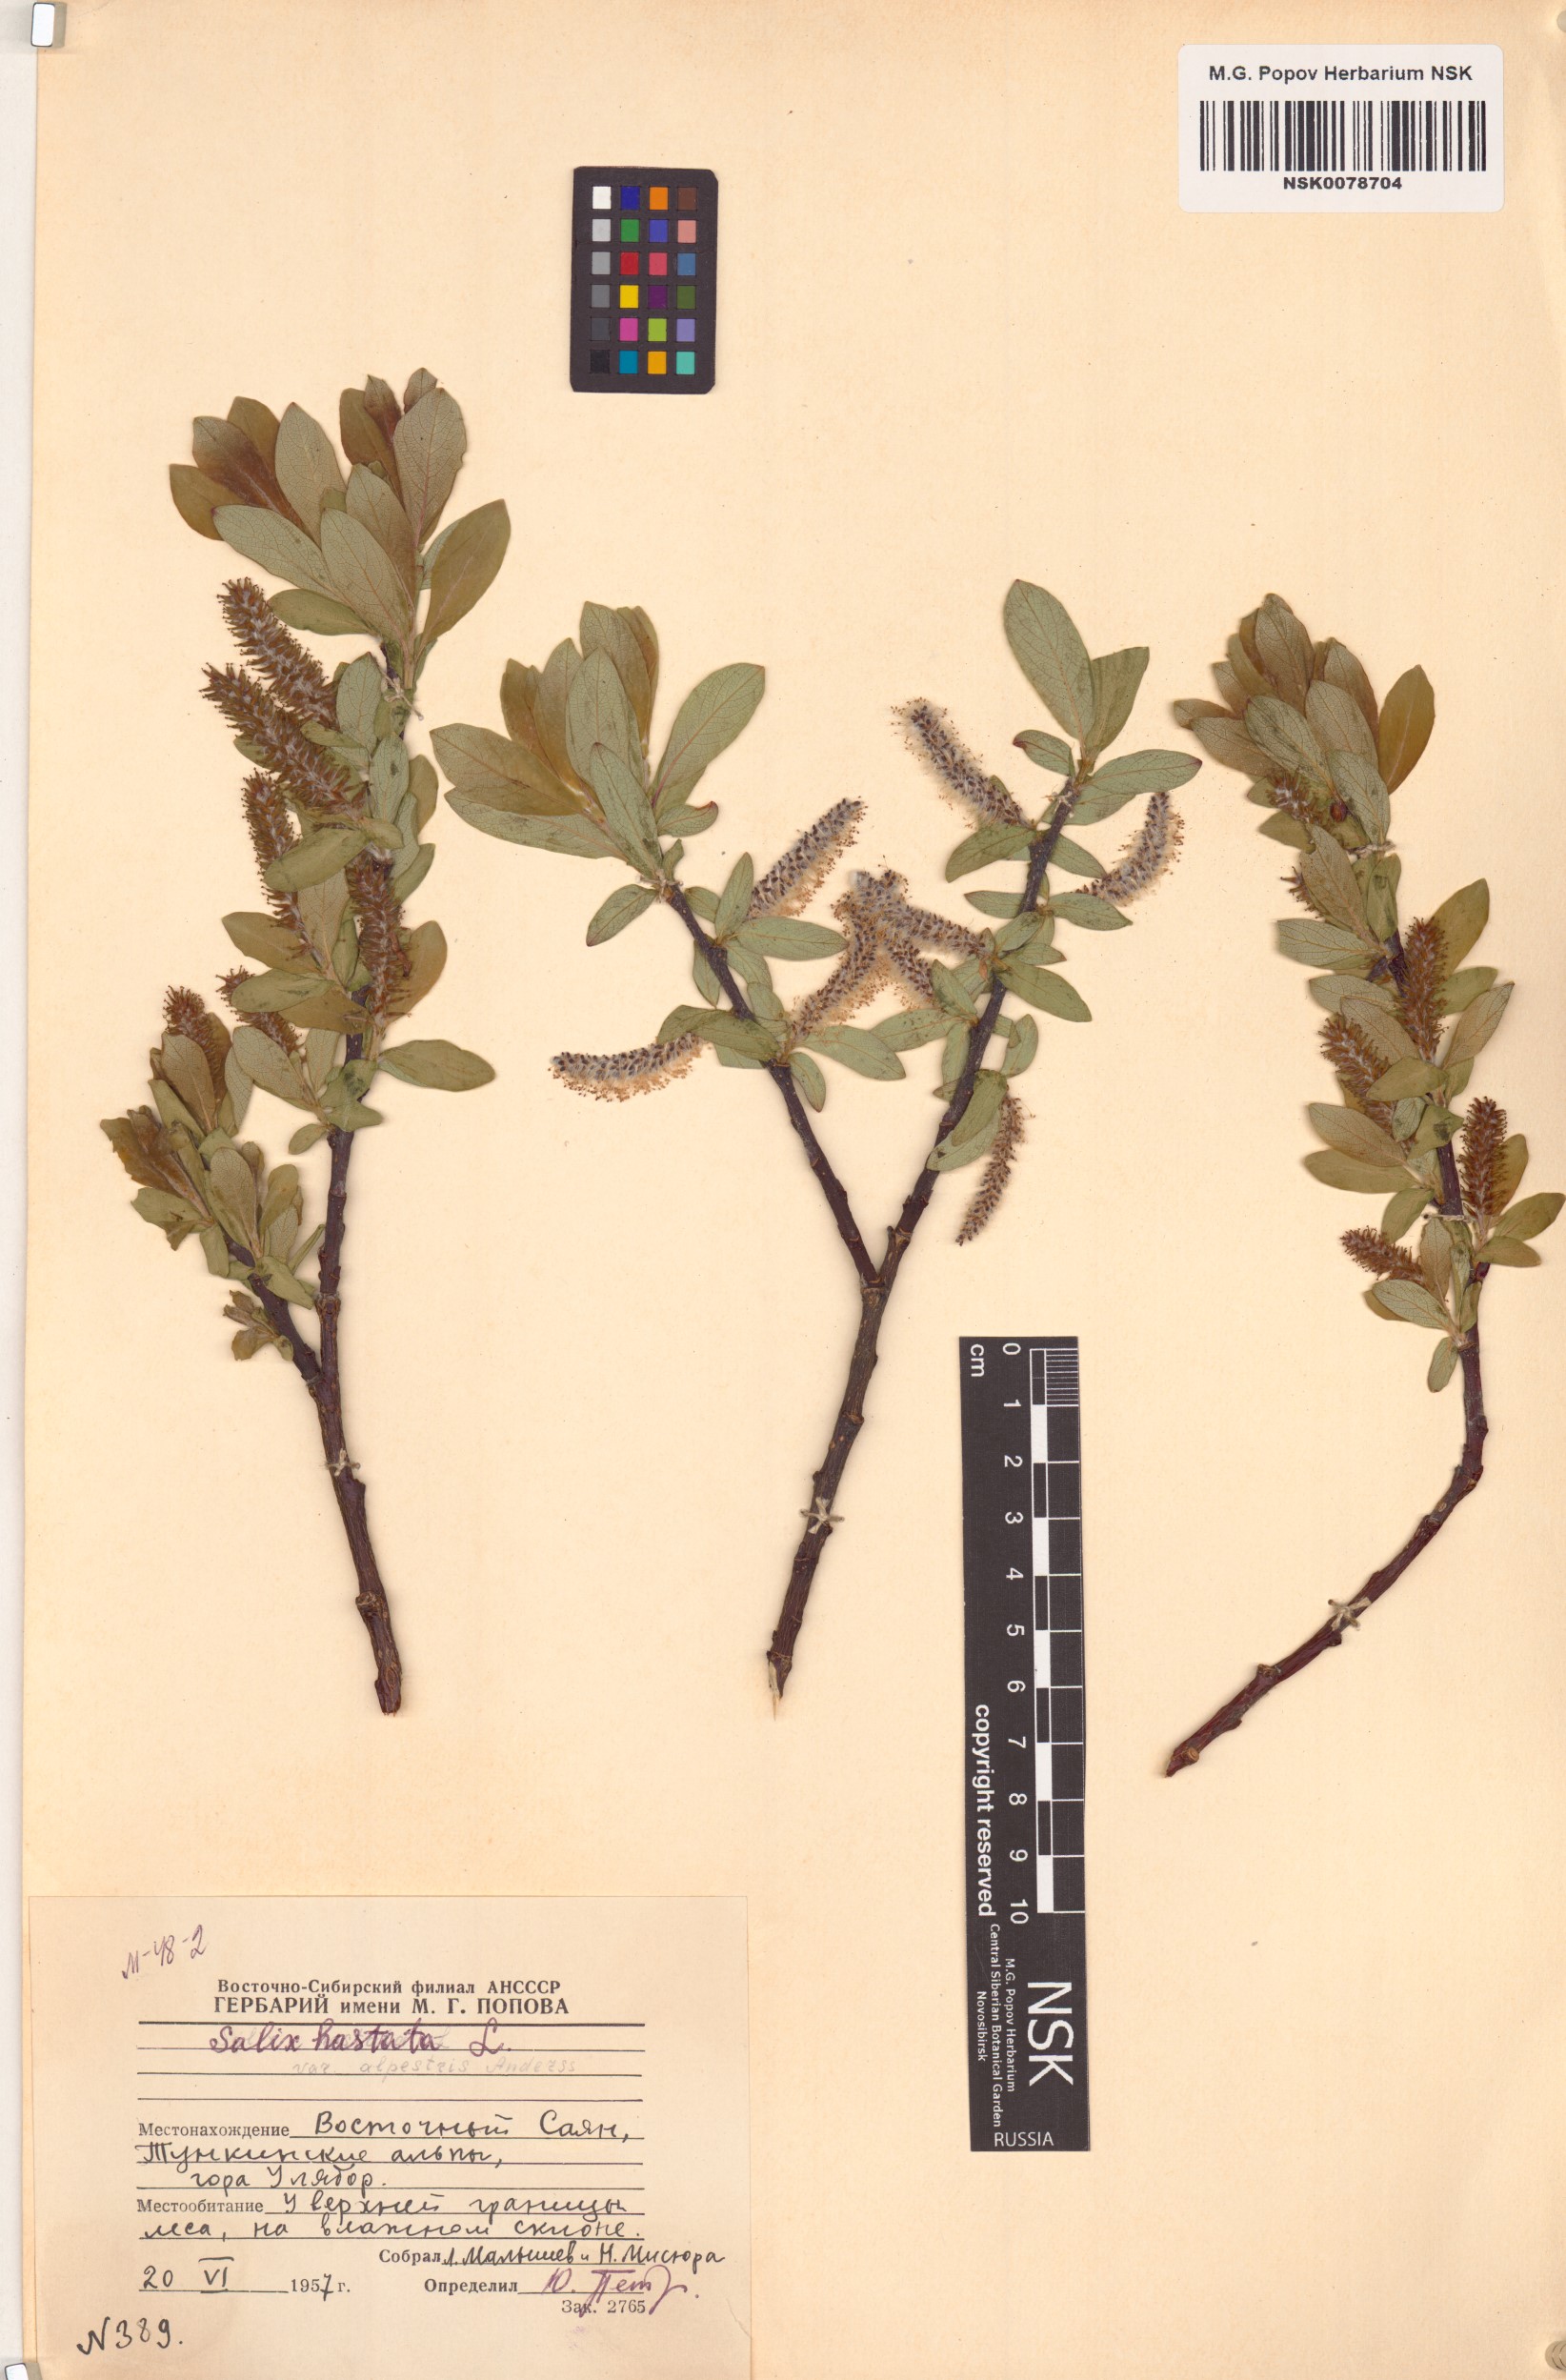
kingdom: Plantae
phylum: Tracheophyta
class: Magnoliopsida
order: Malpighiales
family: Salicaceae
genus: Salix
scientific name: Salix hastata
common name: Halberd willow
